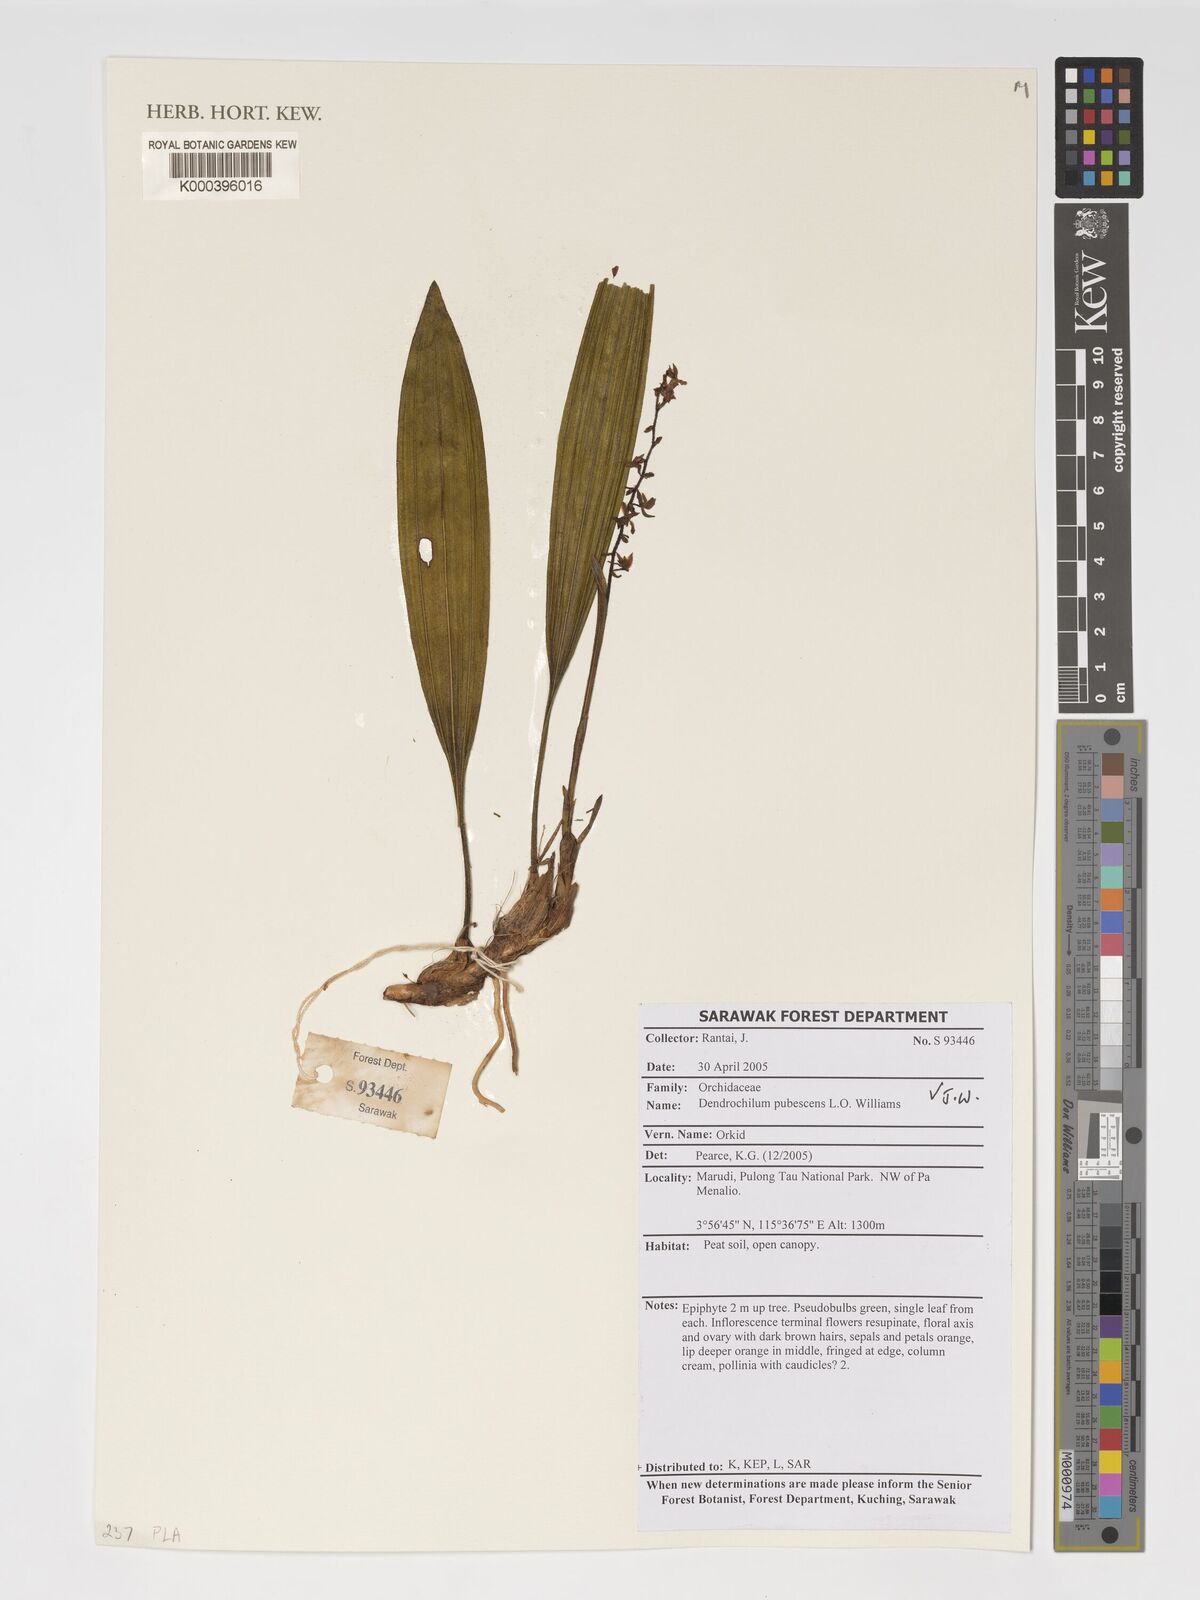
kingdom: Plantae
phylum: Tracheophyta
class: Liliopsida
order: Asparagales
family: Orchidaceae
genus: Coelogyne
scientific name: Coelogyne pubescens
